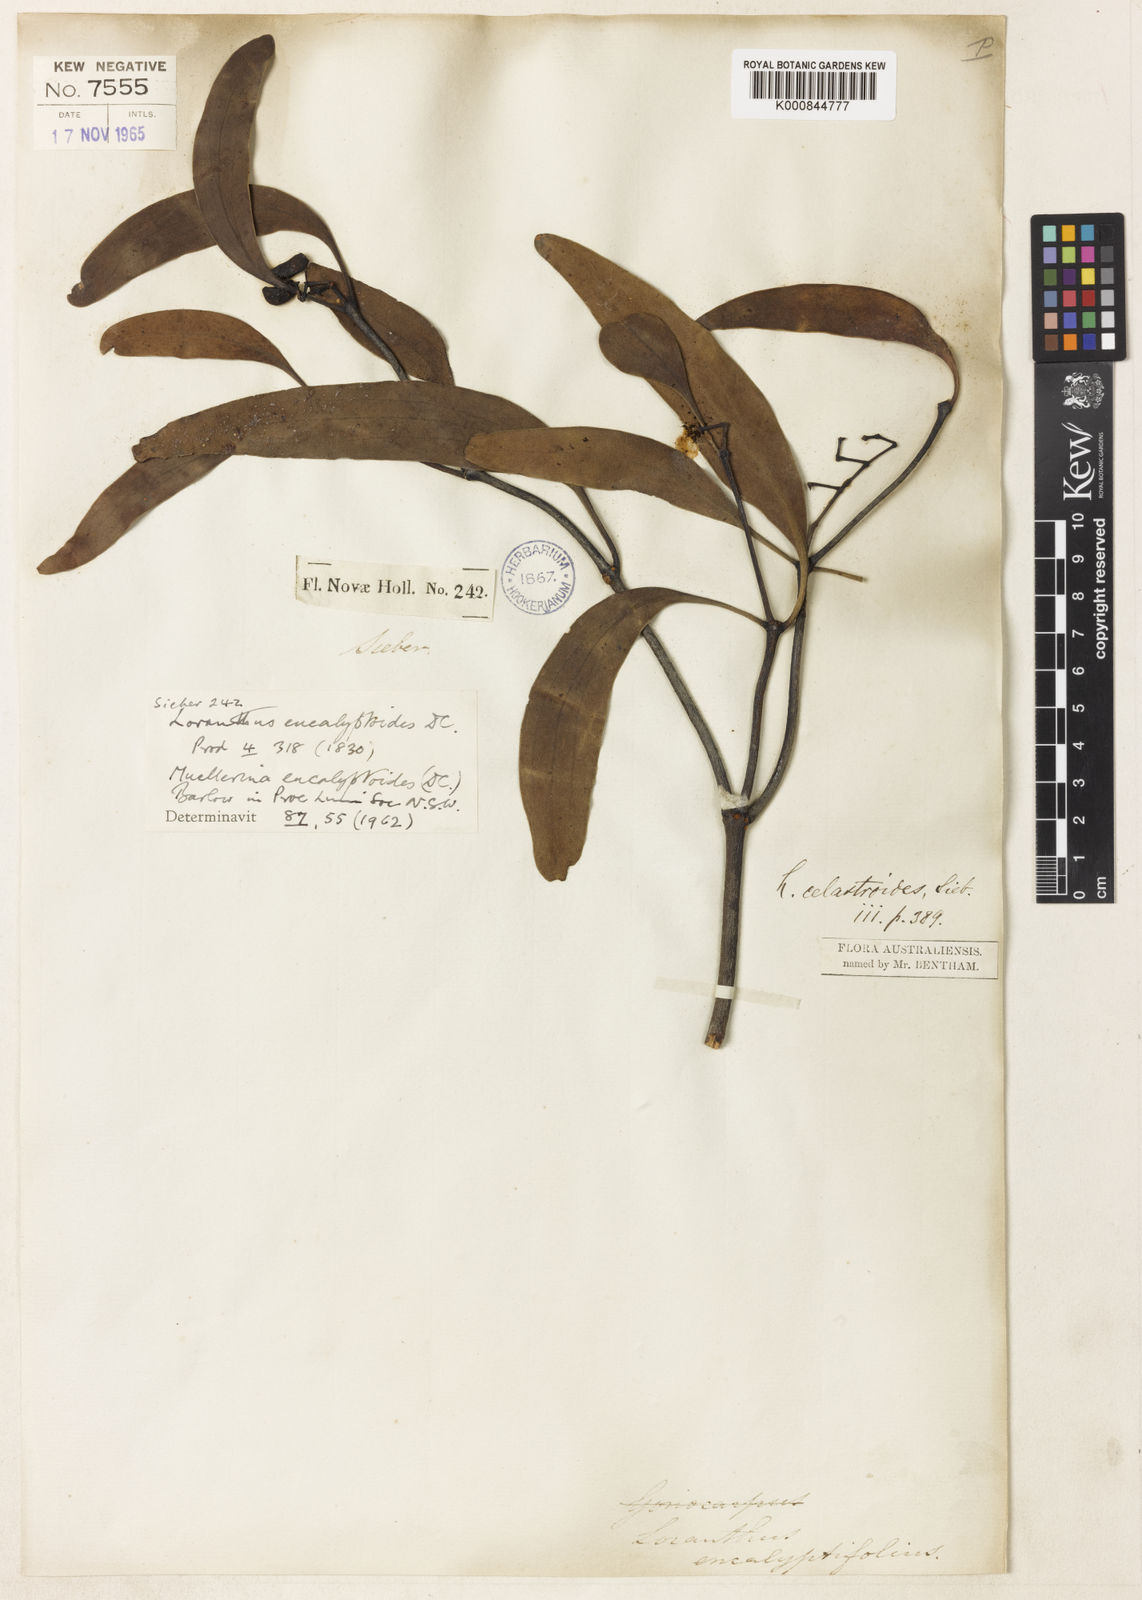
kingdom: Plantae
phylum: Tracheophyta
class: Magnoliopsida
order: Santalales
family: Loranthaceae
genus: Muellerina
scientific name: Muellerina eucalyptoides
